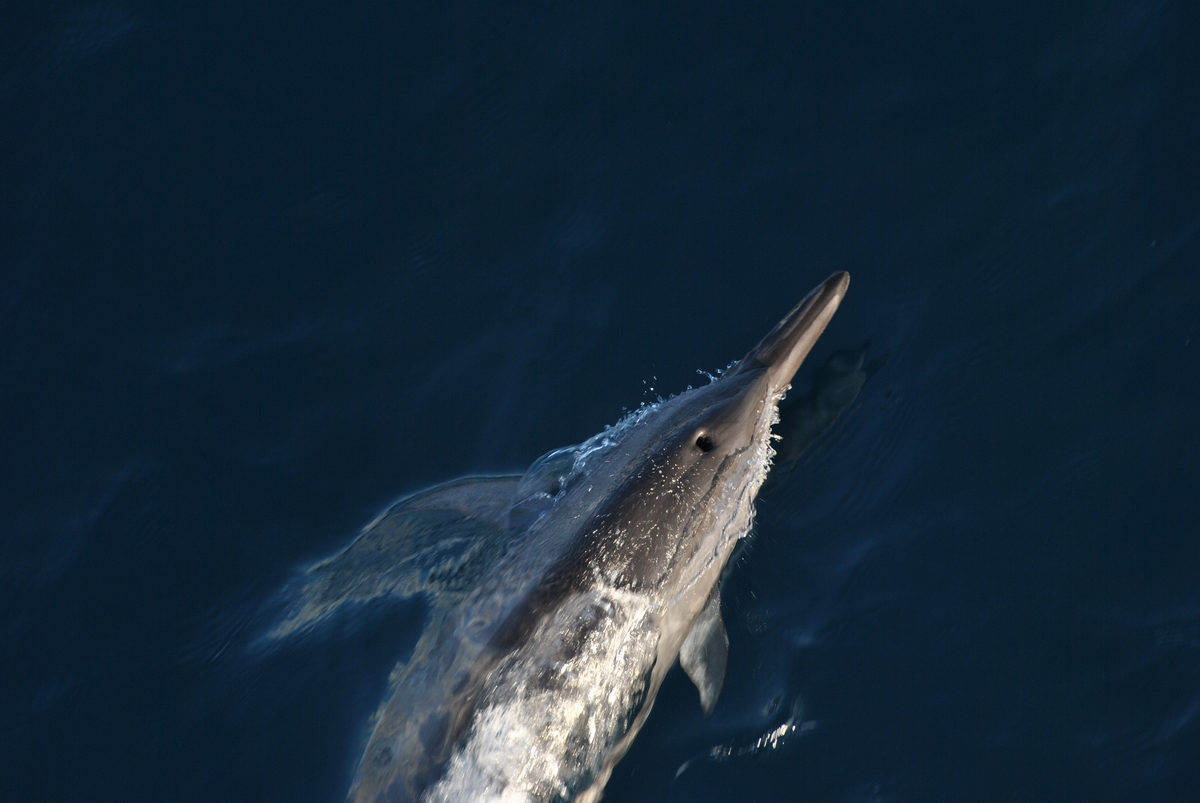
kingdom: Animalia
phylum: Chordata
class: Mammalia
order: Cetacea
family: Delphinidae
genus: Stenella
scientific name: Stenella longirostris
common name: Spinner Dolphin
